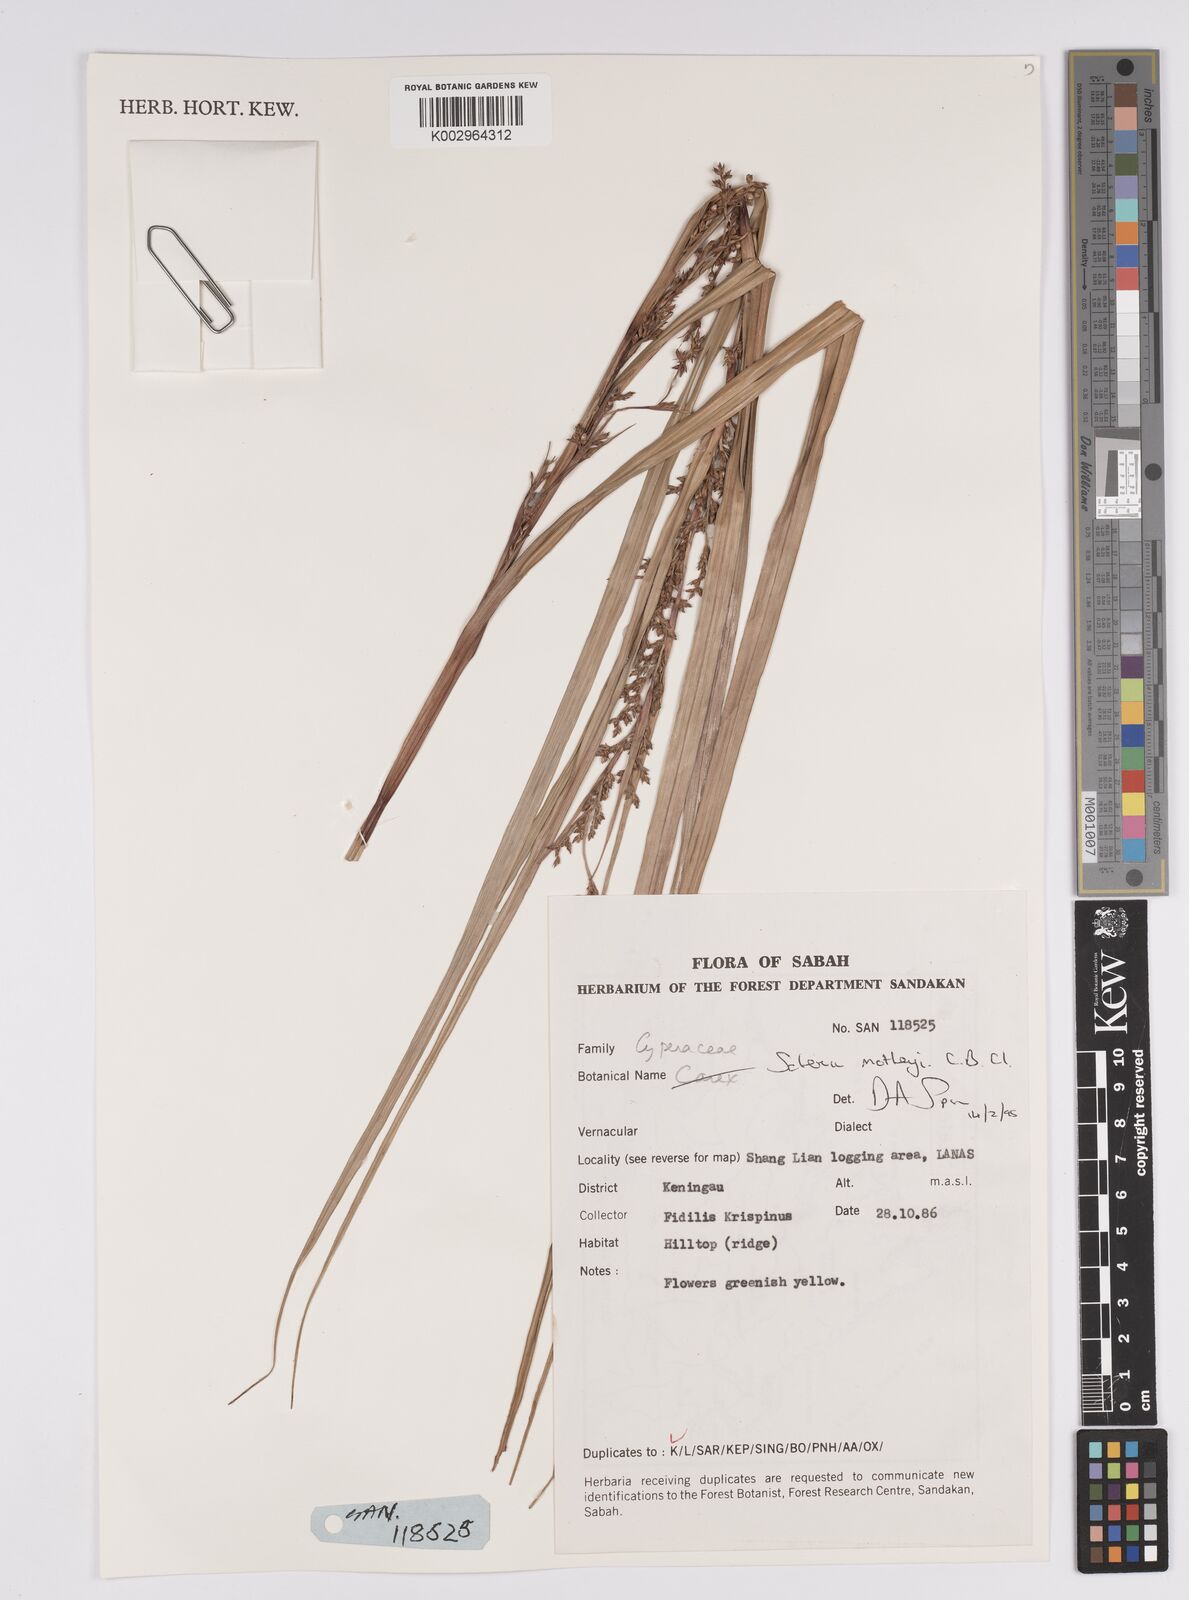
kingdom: Plantae
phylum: Tracheophyta
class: Liliopsida
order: Poales
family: Cyperaceae
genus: Scleria
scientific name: Scleria motleyi
